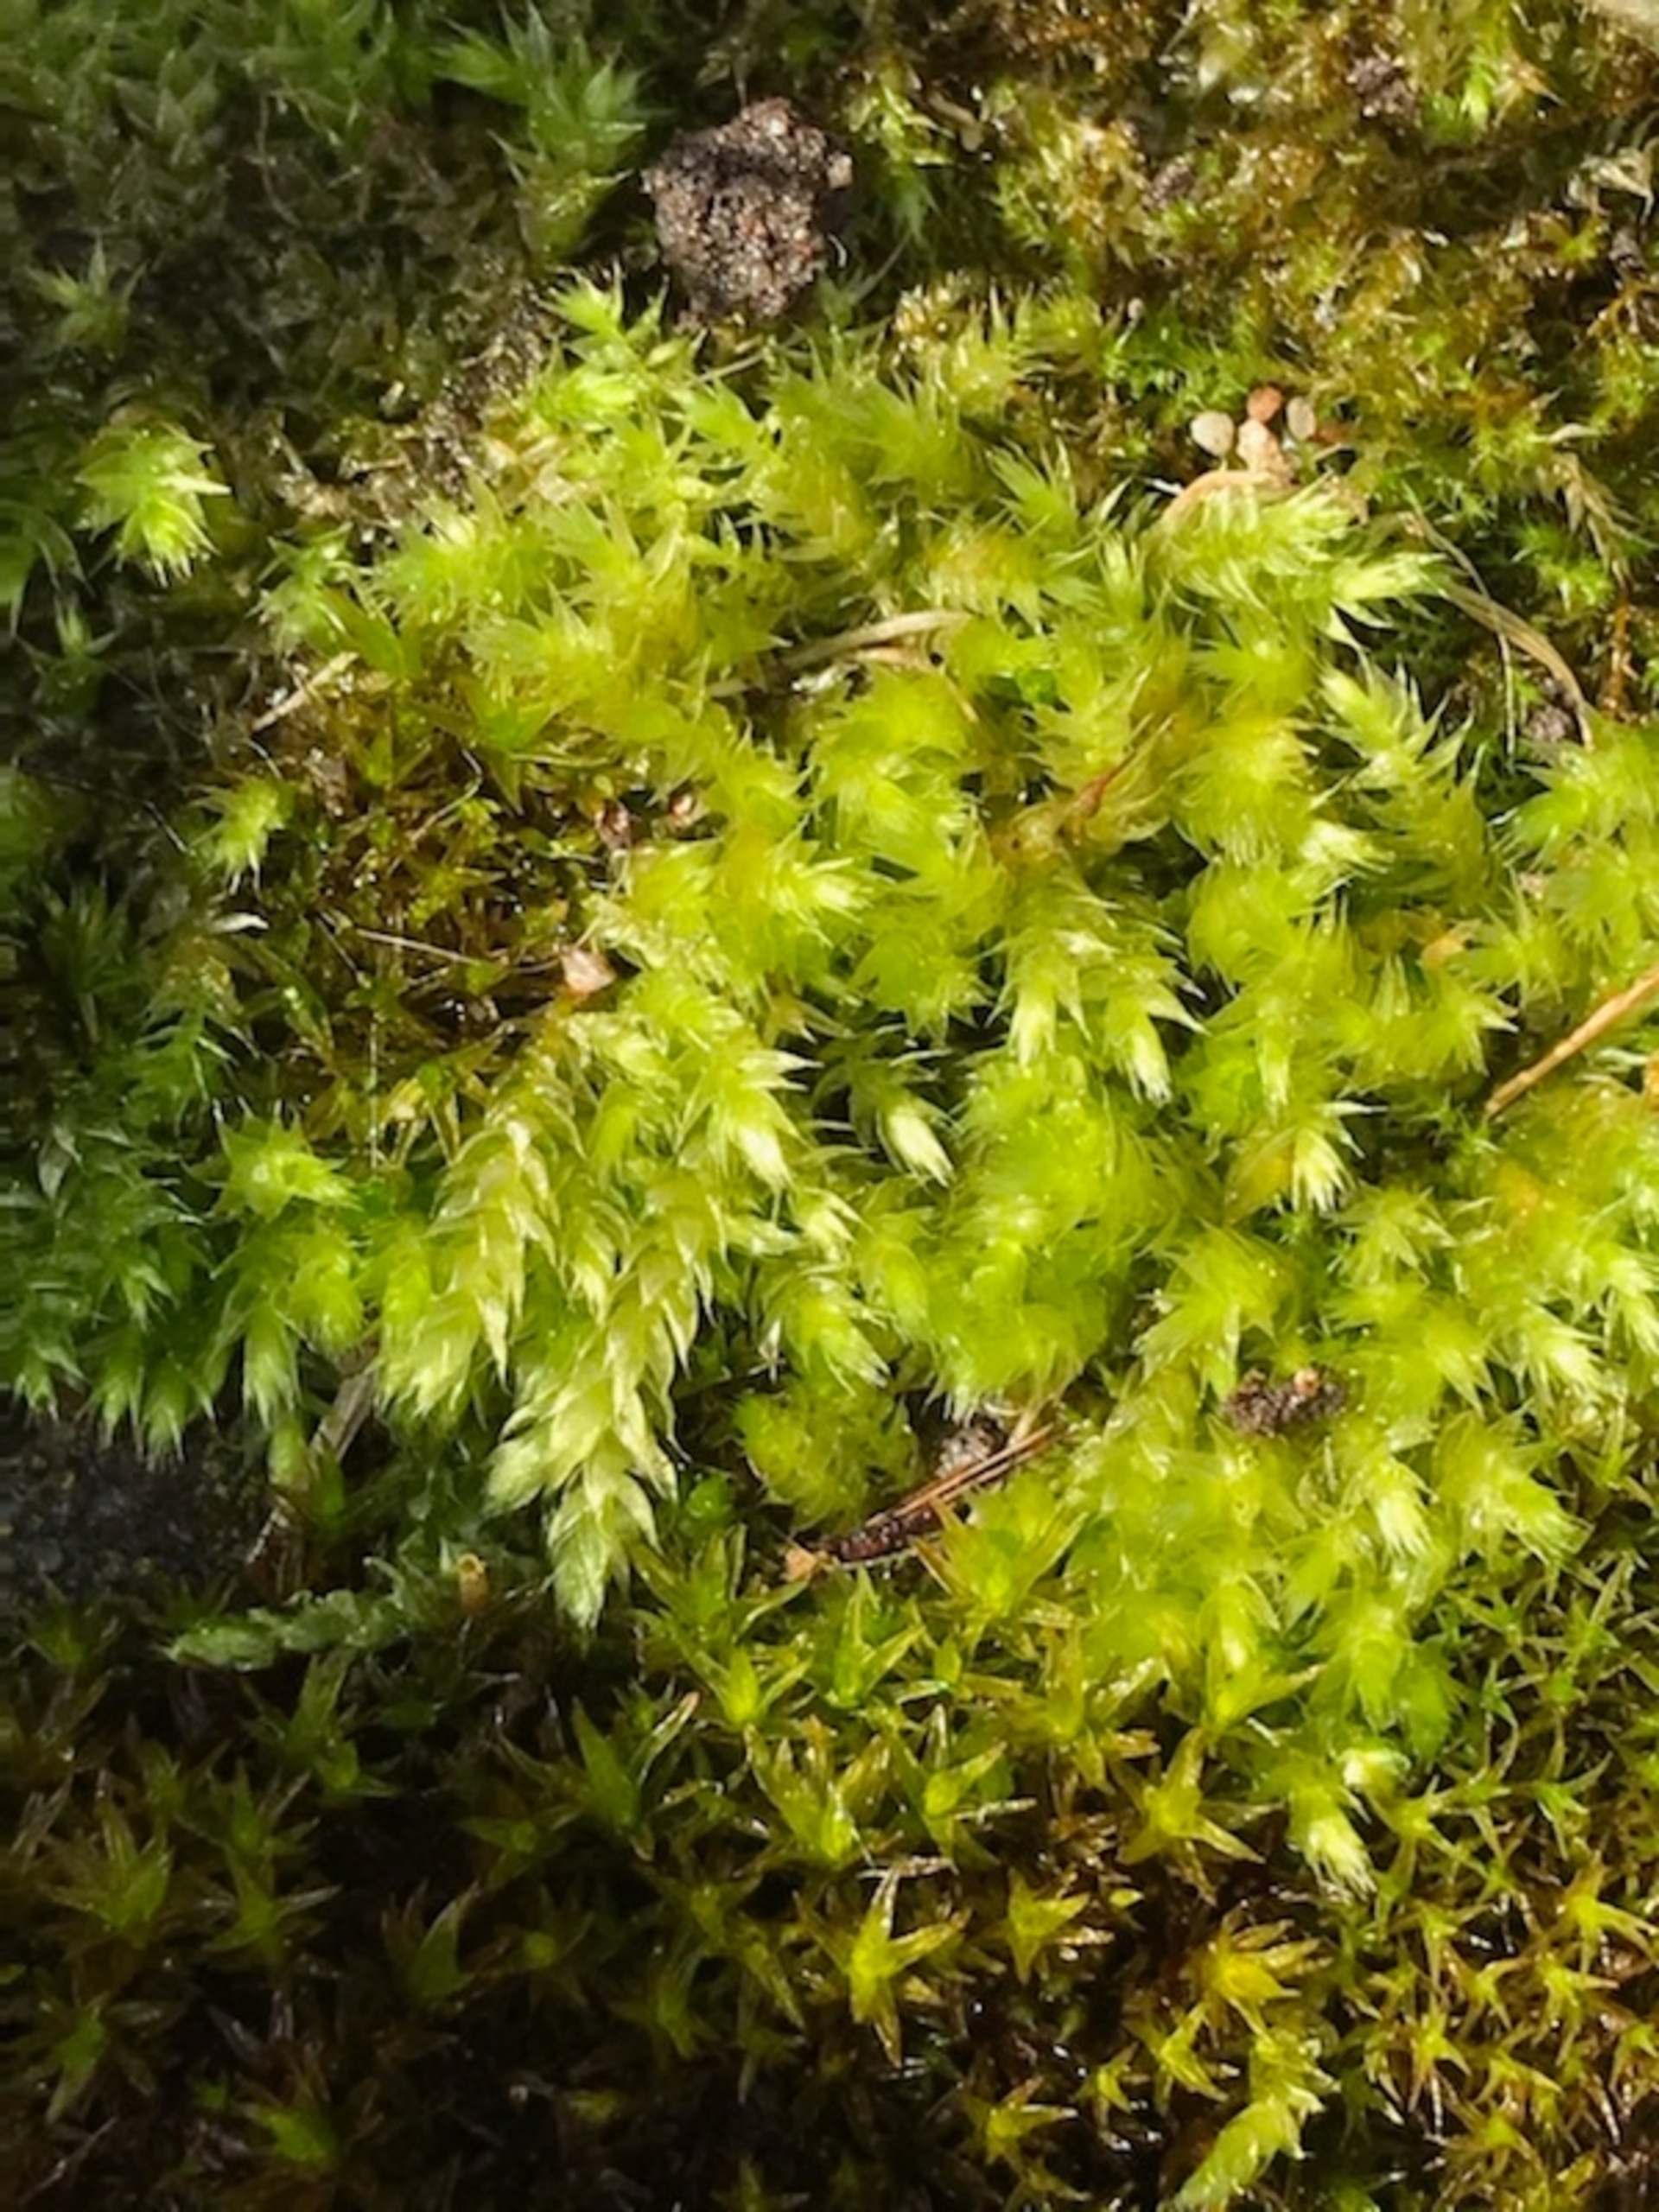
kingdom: Plantae
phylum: Bryophyta
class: Bryopsida
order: Hypnales
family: Brachytheciaceae
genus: Brachythecium
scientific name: Brachythecium rutabulum
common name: Almindelig kortkapsel
